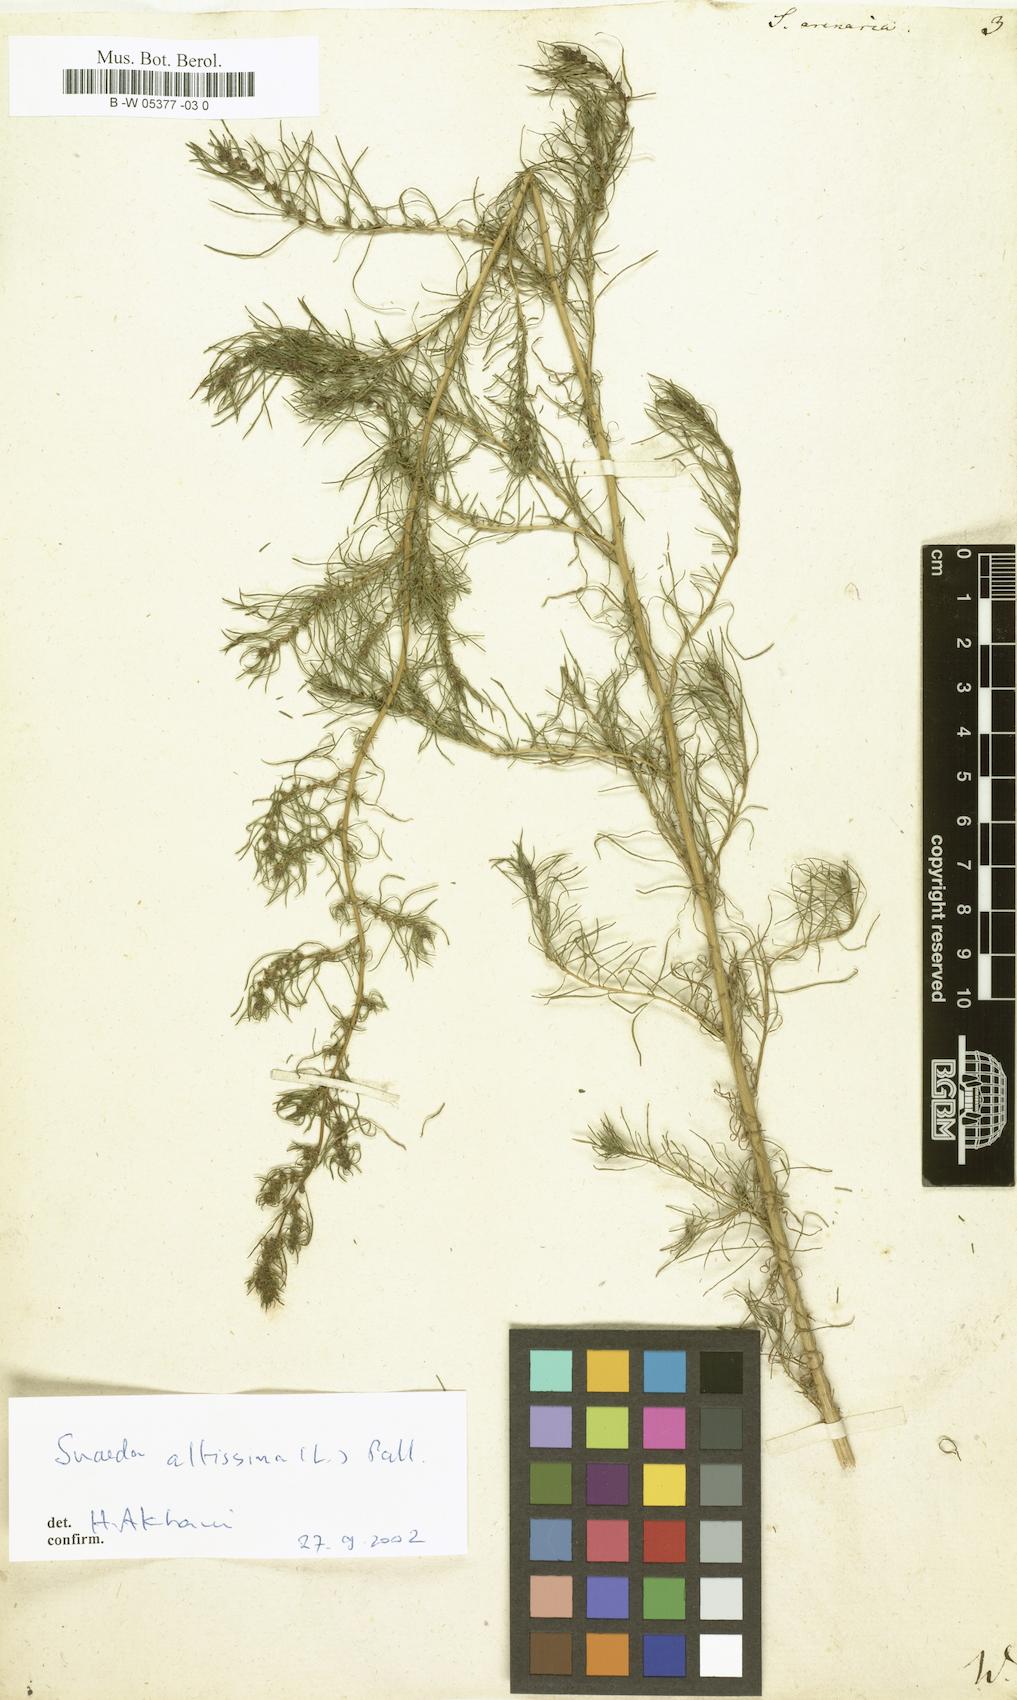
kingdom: Plantae
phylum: Tracheophyta
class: Magnoliopsida
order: Caryophyllales
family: Amaranthaceae
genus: Bassia
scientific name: Bassia laniflora
